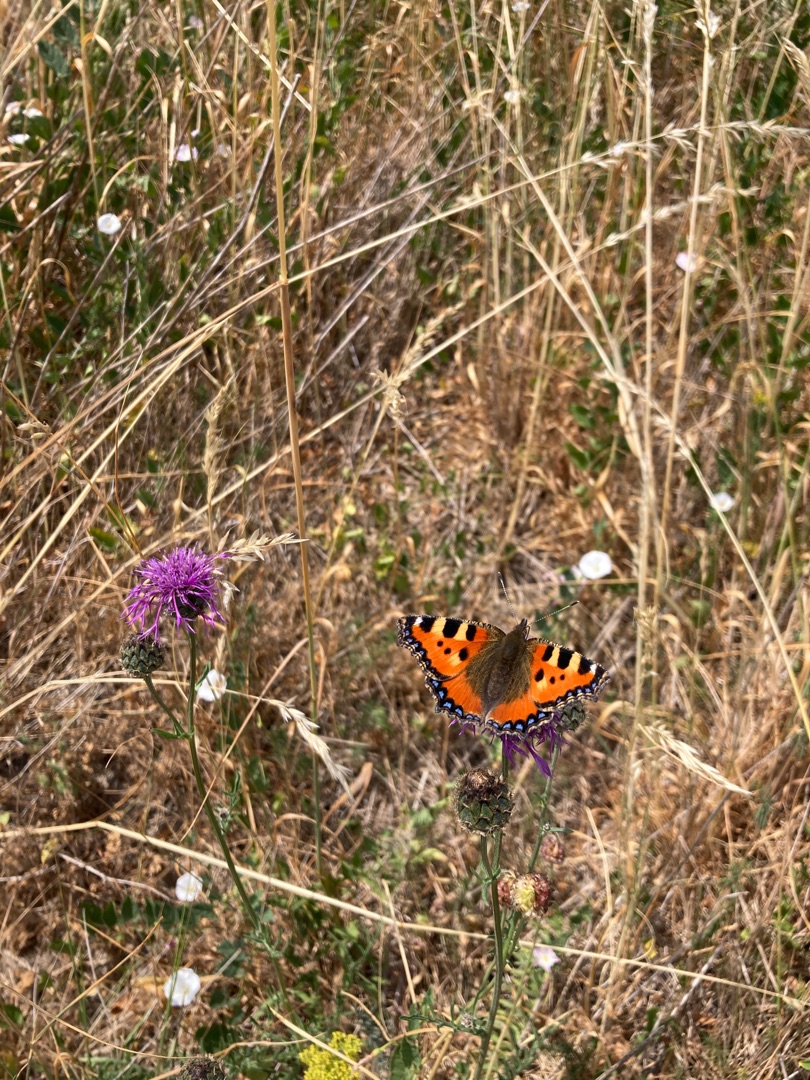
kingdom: Animalia
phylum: Arthropoda
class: Insecta
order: Lepidoptera
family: Nymphalidae
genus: Aglais
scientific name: Aglais urticae
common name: Nældens takvinge
